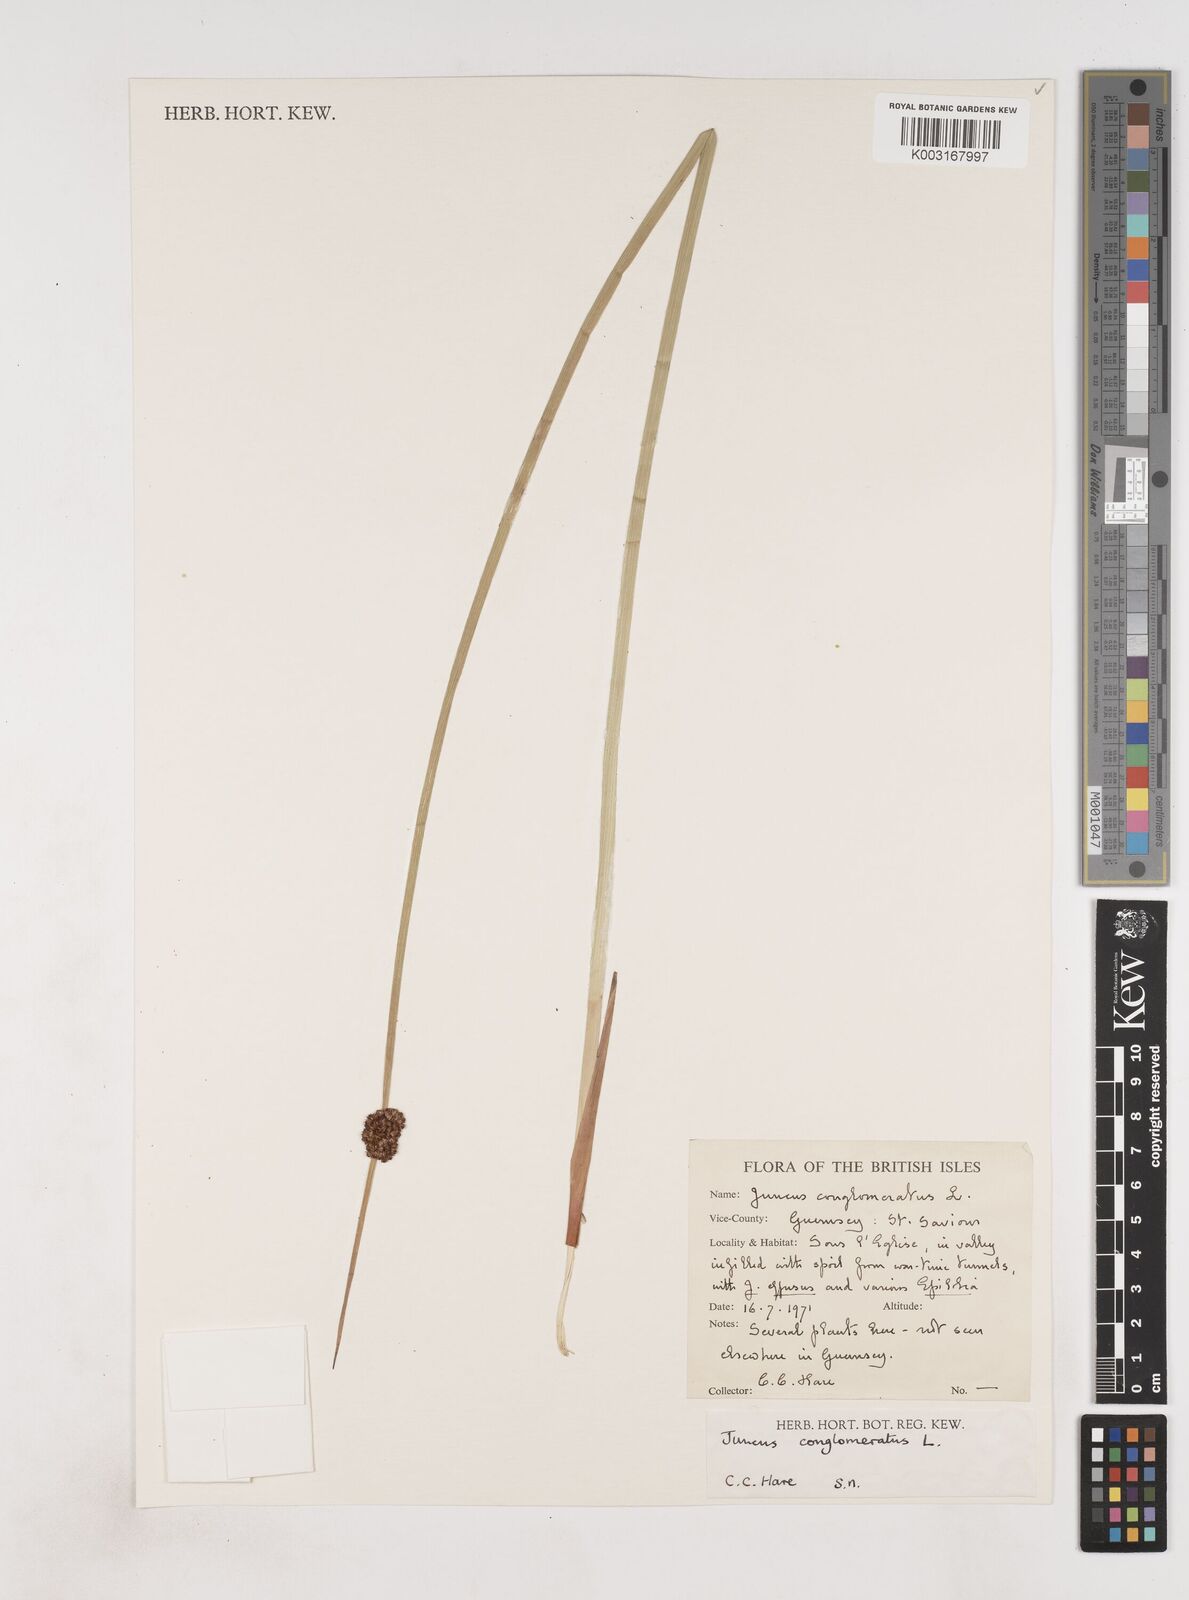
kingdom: Plantae
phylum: Tracheophyta
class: Liliopsida
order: Poales
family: Juncaceae
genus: Juncus
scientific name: Juncus conglomeratus
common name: Compact rush
